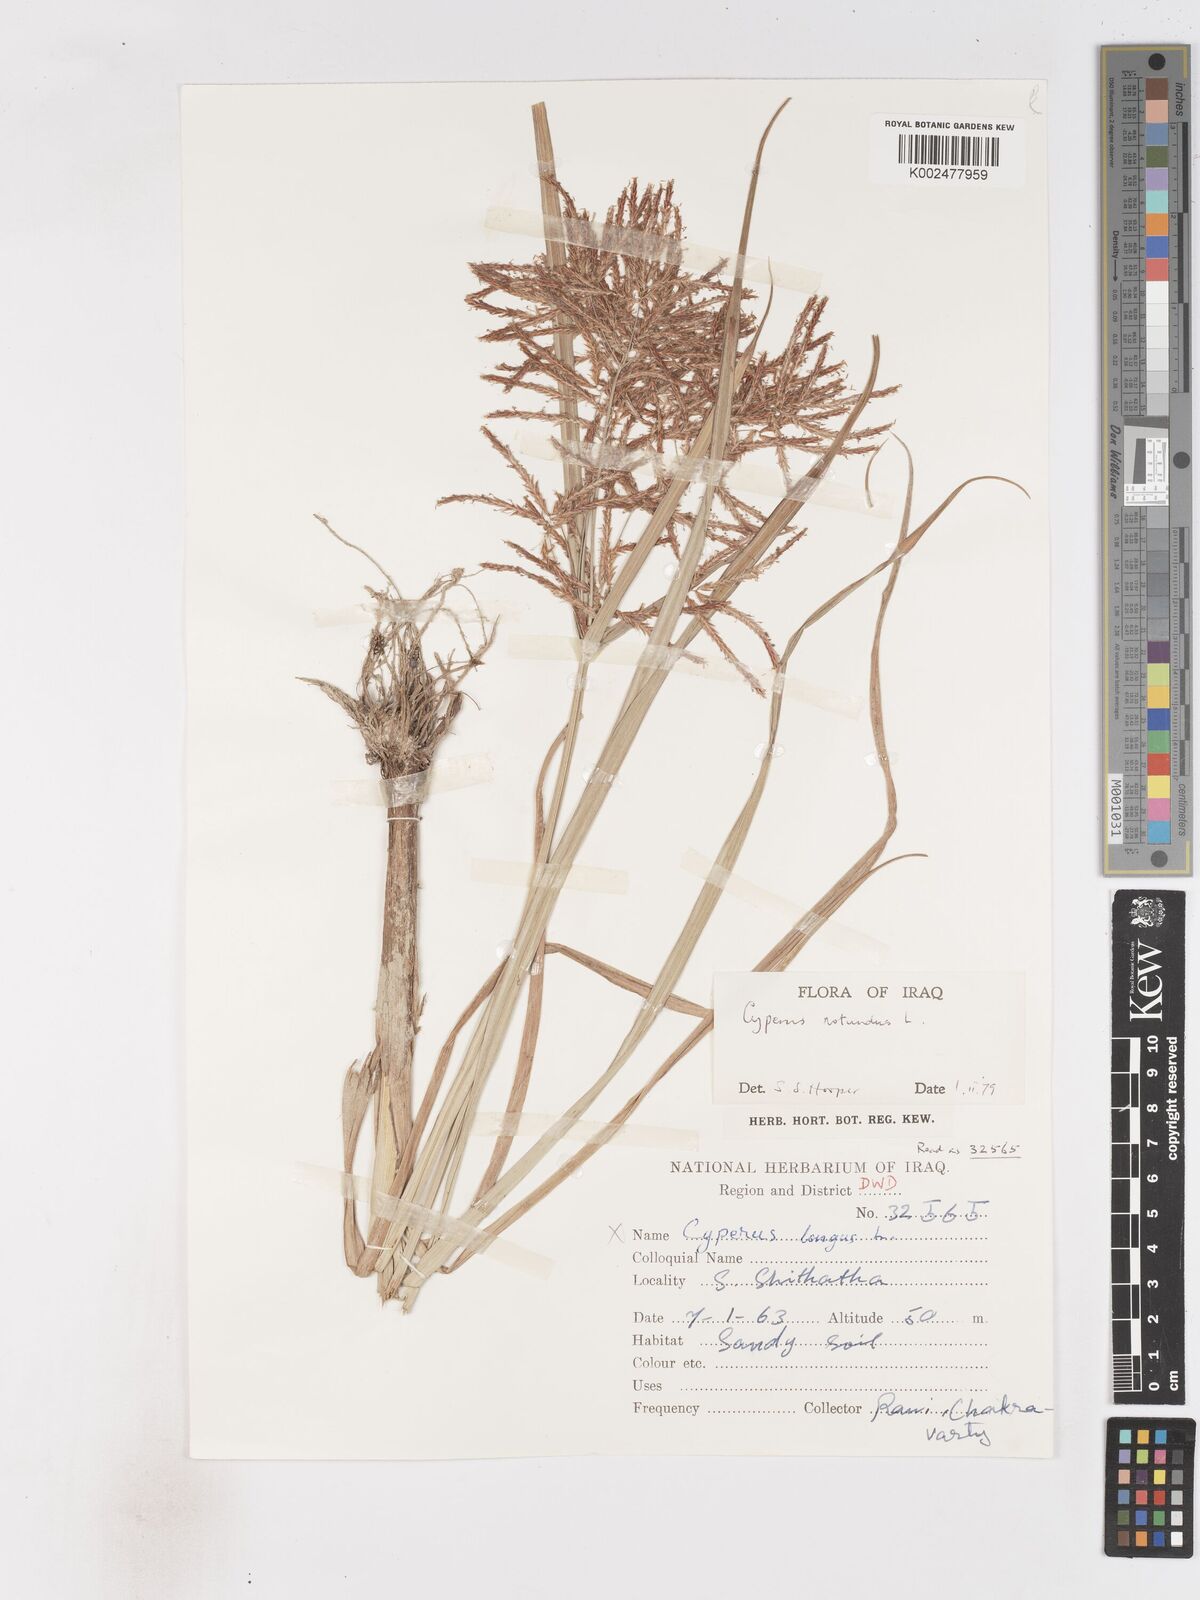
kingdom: Plantae
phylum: Tracheophyta
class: Liliopsida
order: Poales
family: Cyperaceae
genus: Cyperus
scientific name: Cyperus rotundus
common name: Nutgrass
